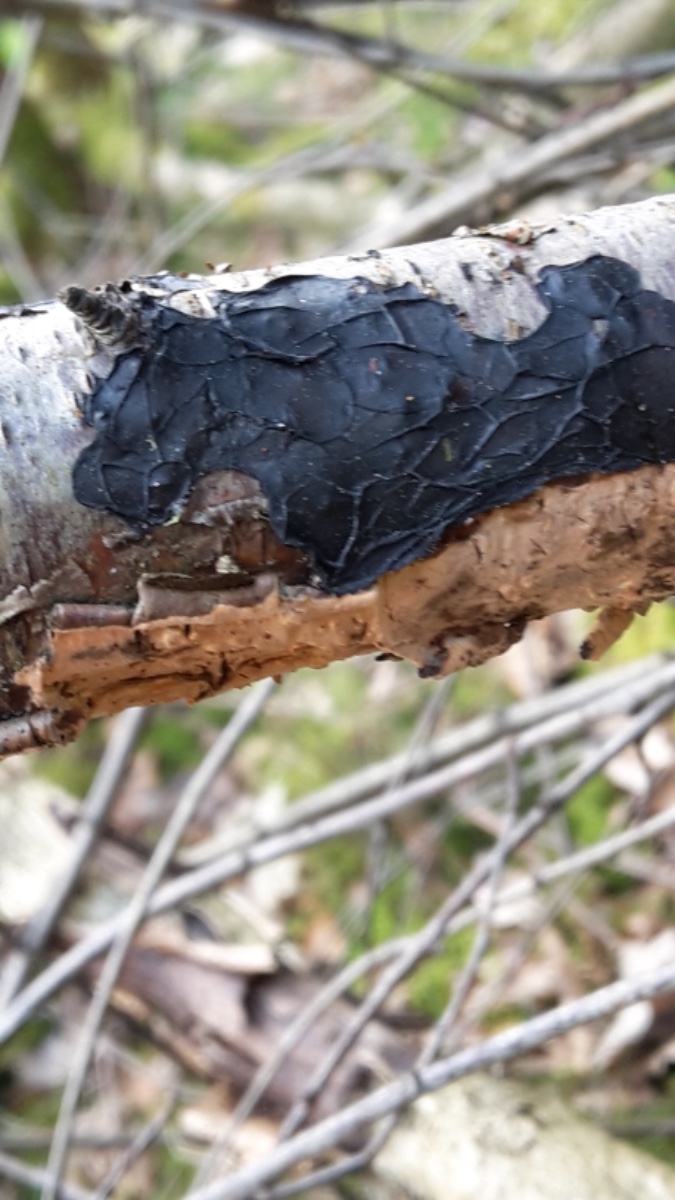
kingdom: Fungi
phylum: Basidiomycota
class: Agaricomycetes
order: Auriculariales
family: Auriculariaceae
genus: Exidia
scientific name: Exidia nigricans
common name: almindelig bævretop
